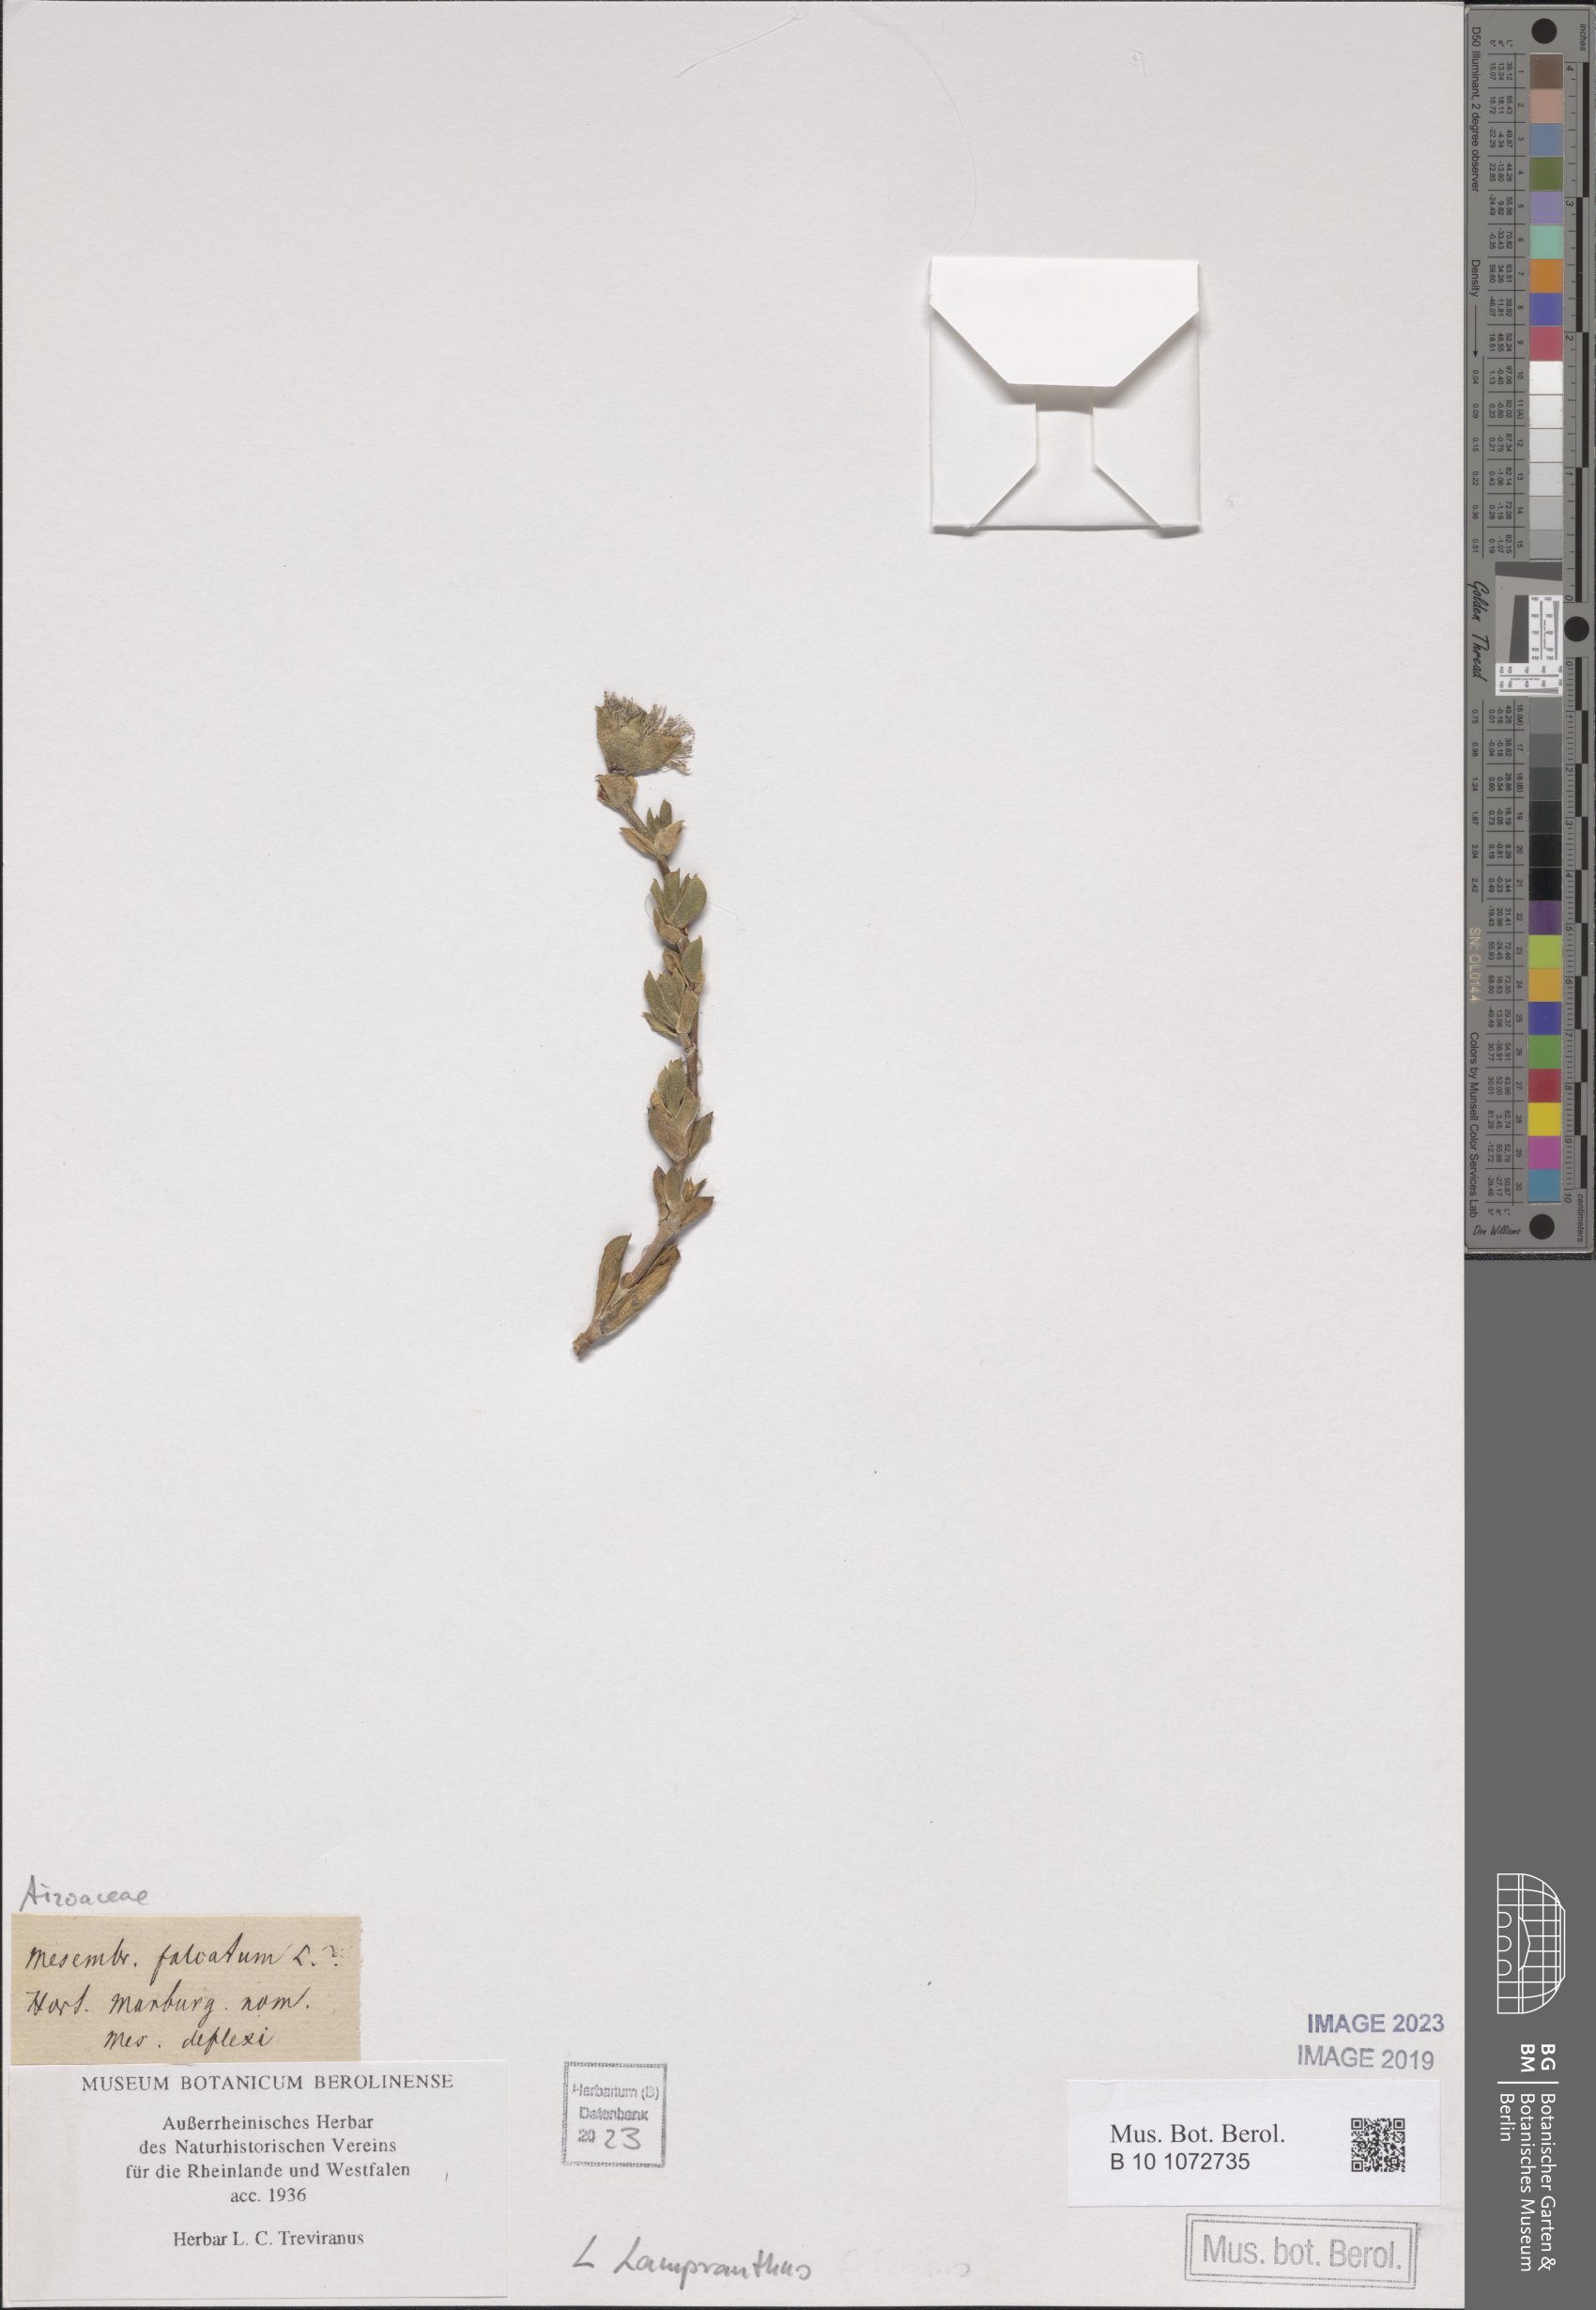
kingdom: Plantae
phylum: Tracheophyta
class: Magnoliopsida
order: Caryophyllales
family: Aizoaceae
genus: Lampranthus
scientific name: Lampranthus
